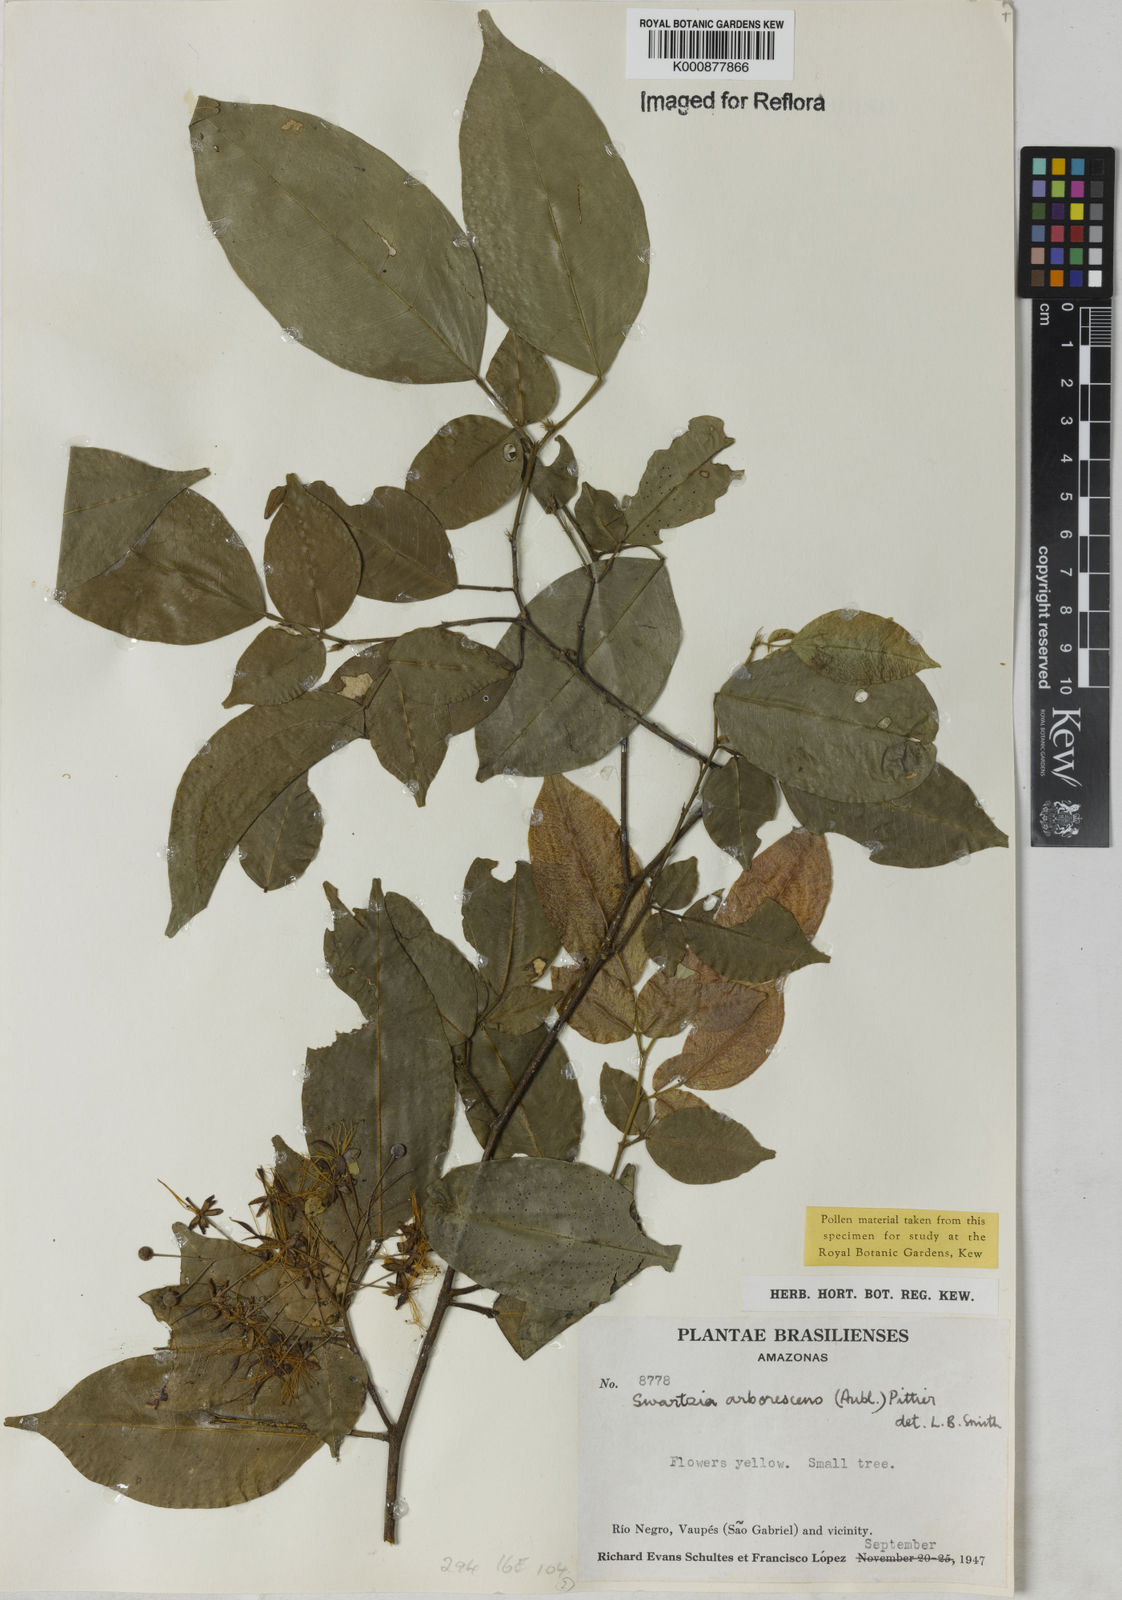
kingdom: Plantae
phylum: Tracheophyta
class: Magnoliopsida
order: Fabales
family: Fabaceae
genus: Swartzia
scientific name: Swartzia arborescens
